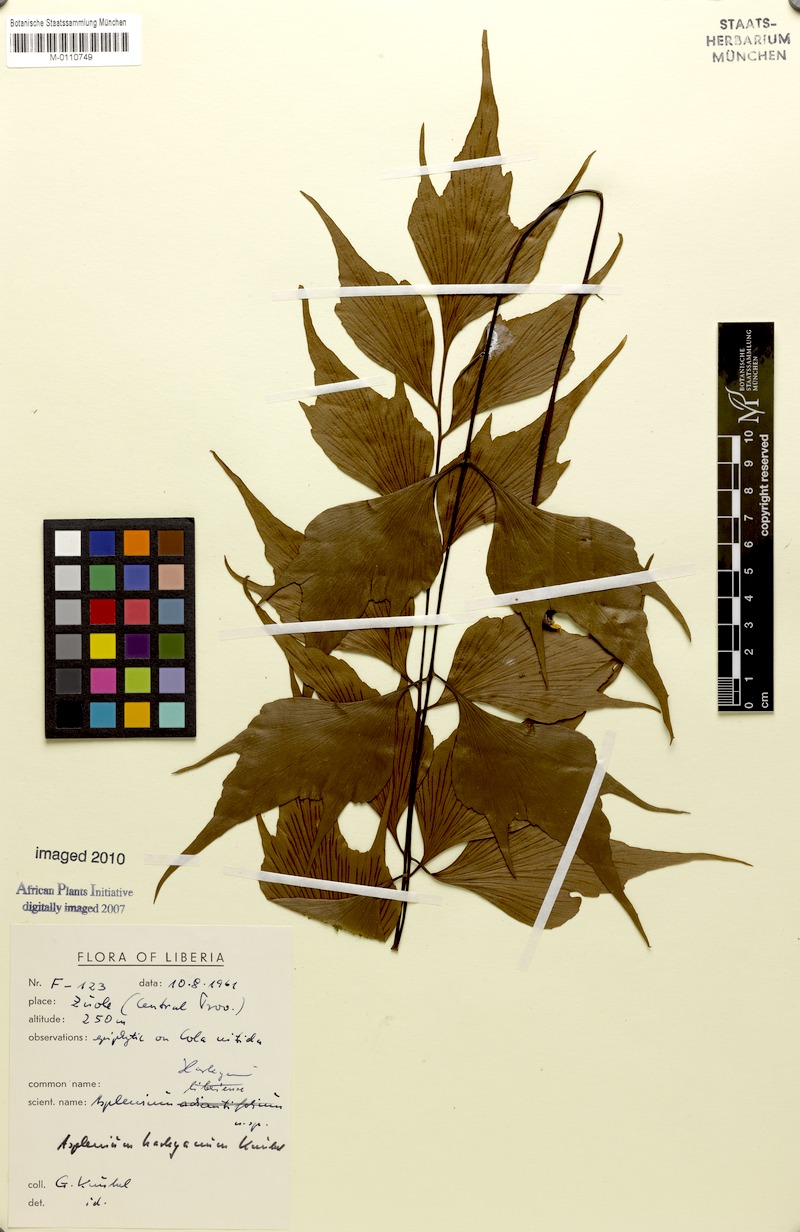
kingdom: Plantae
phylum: Tracheophyta
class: Polypodiopsida
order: Polypodiales
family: Aspleniaceae
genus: Asplenium
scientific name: Asplenium harleyanum
